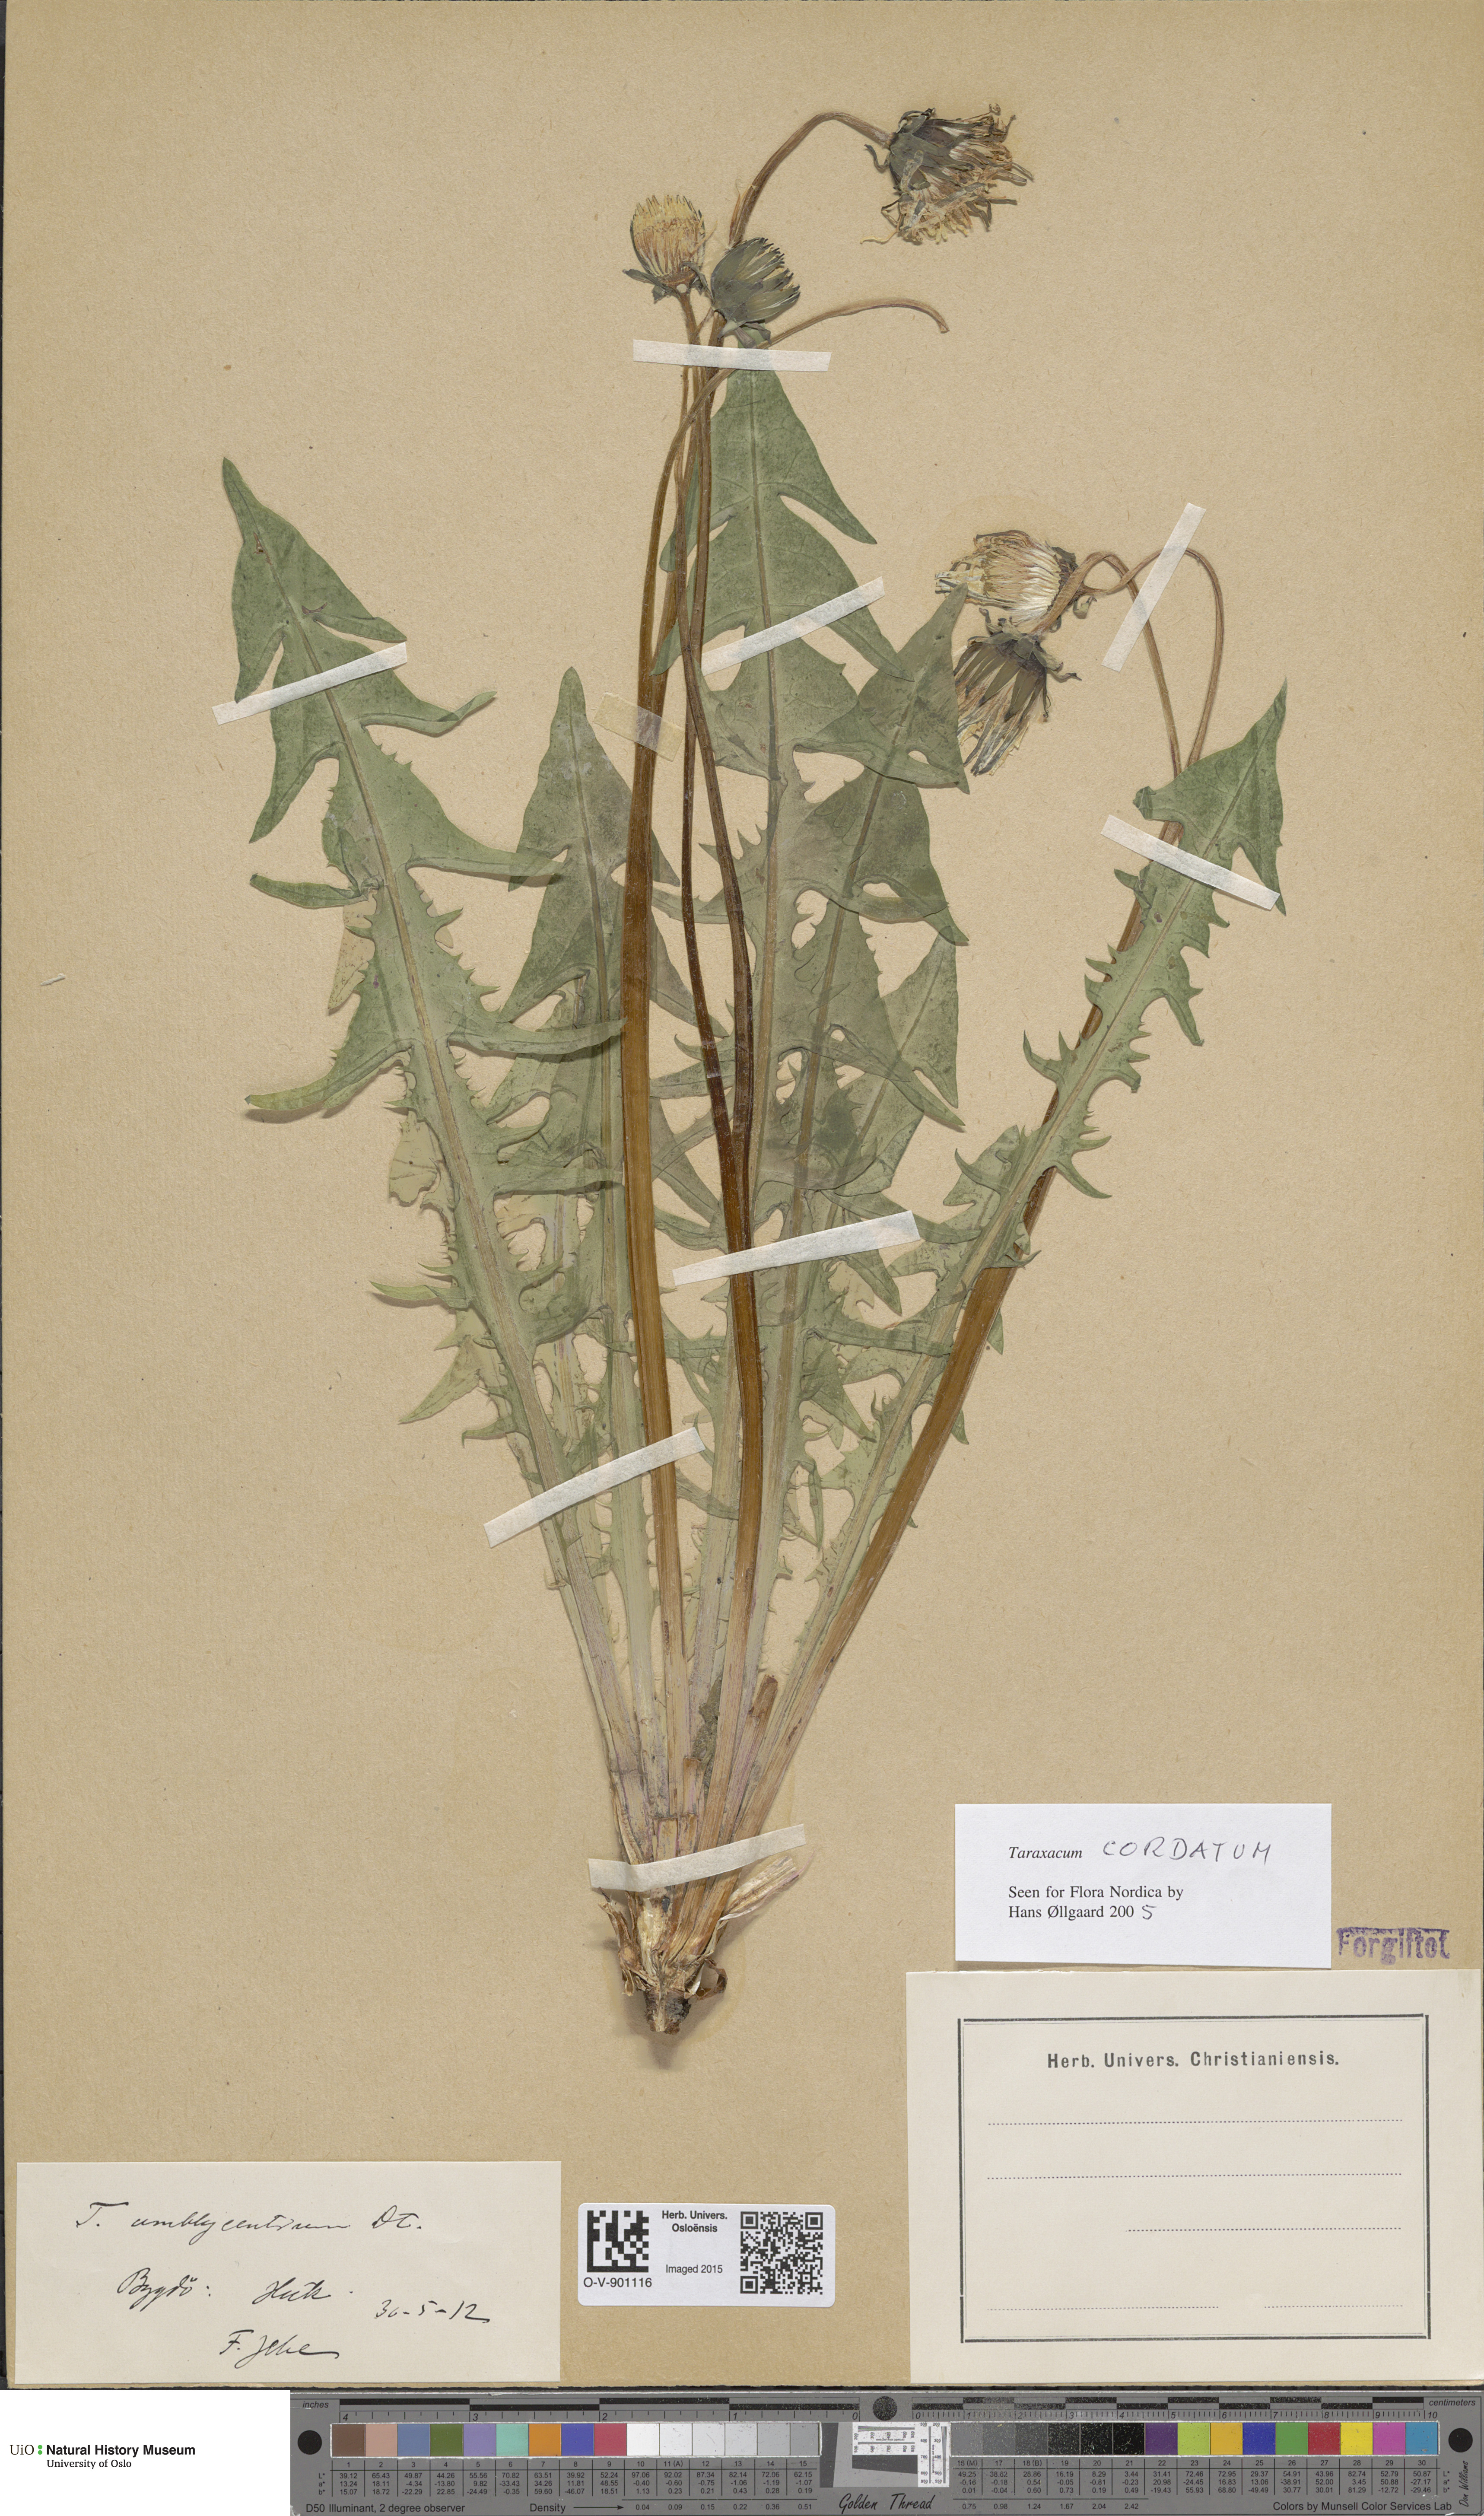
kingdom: Plantae
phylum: Tracheophyta
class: Magnoliopsida
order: Asterales
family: Asteraceae
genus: Taraxacum
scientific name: Taraxacum cordatum
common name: Entire-lobed dandelion
